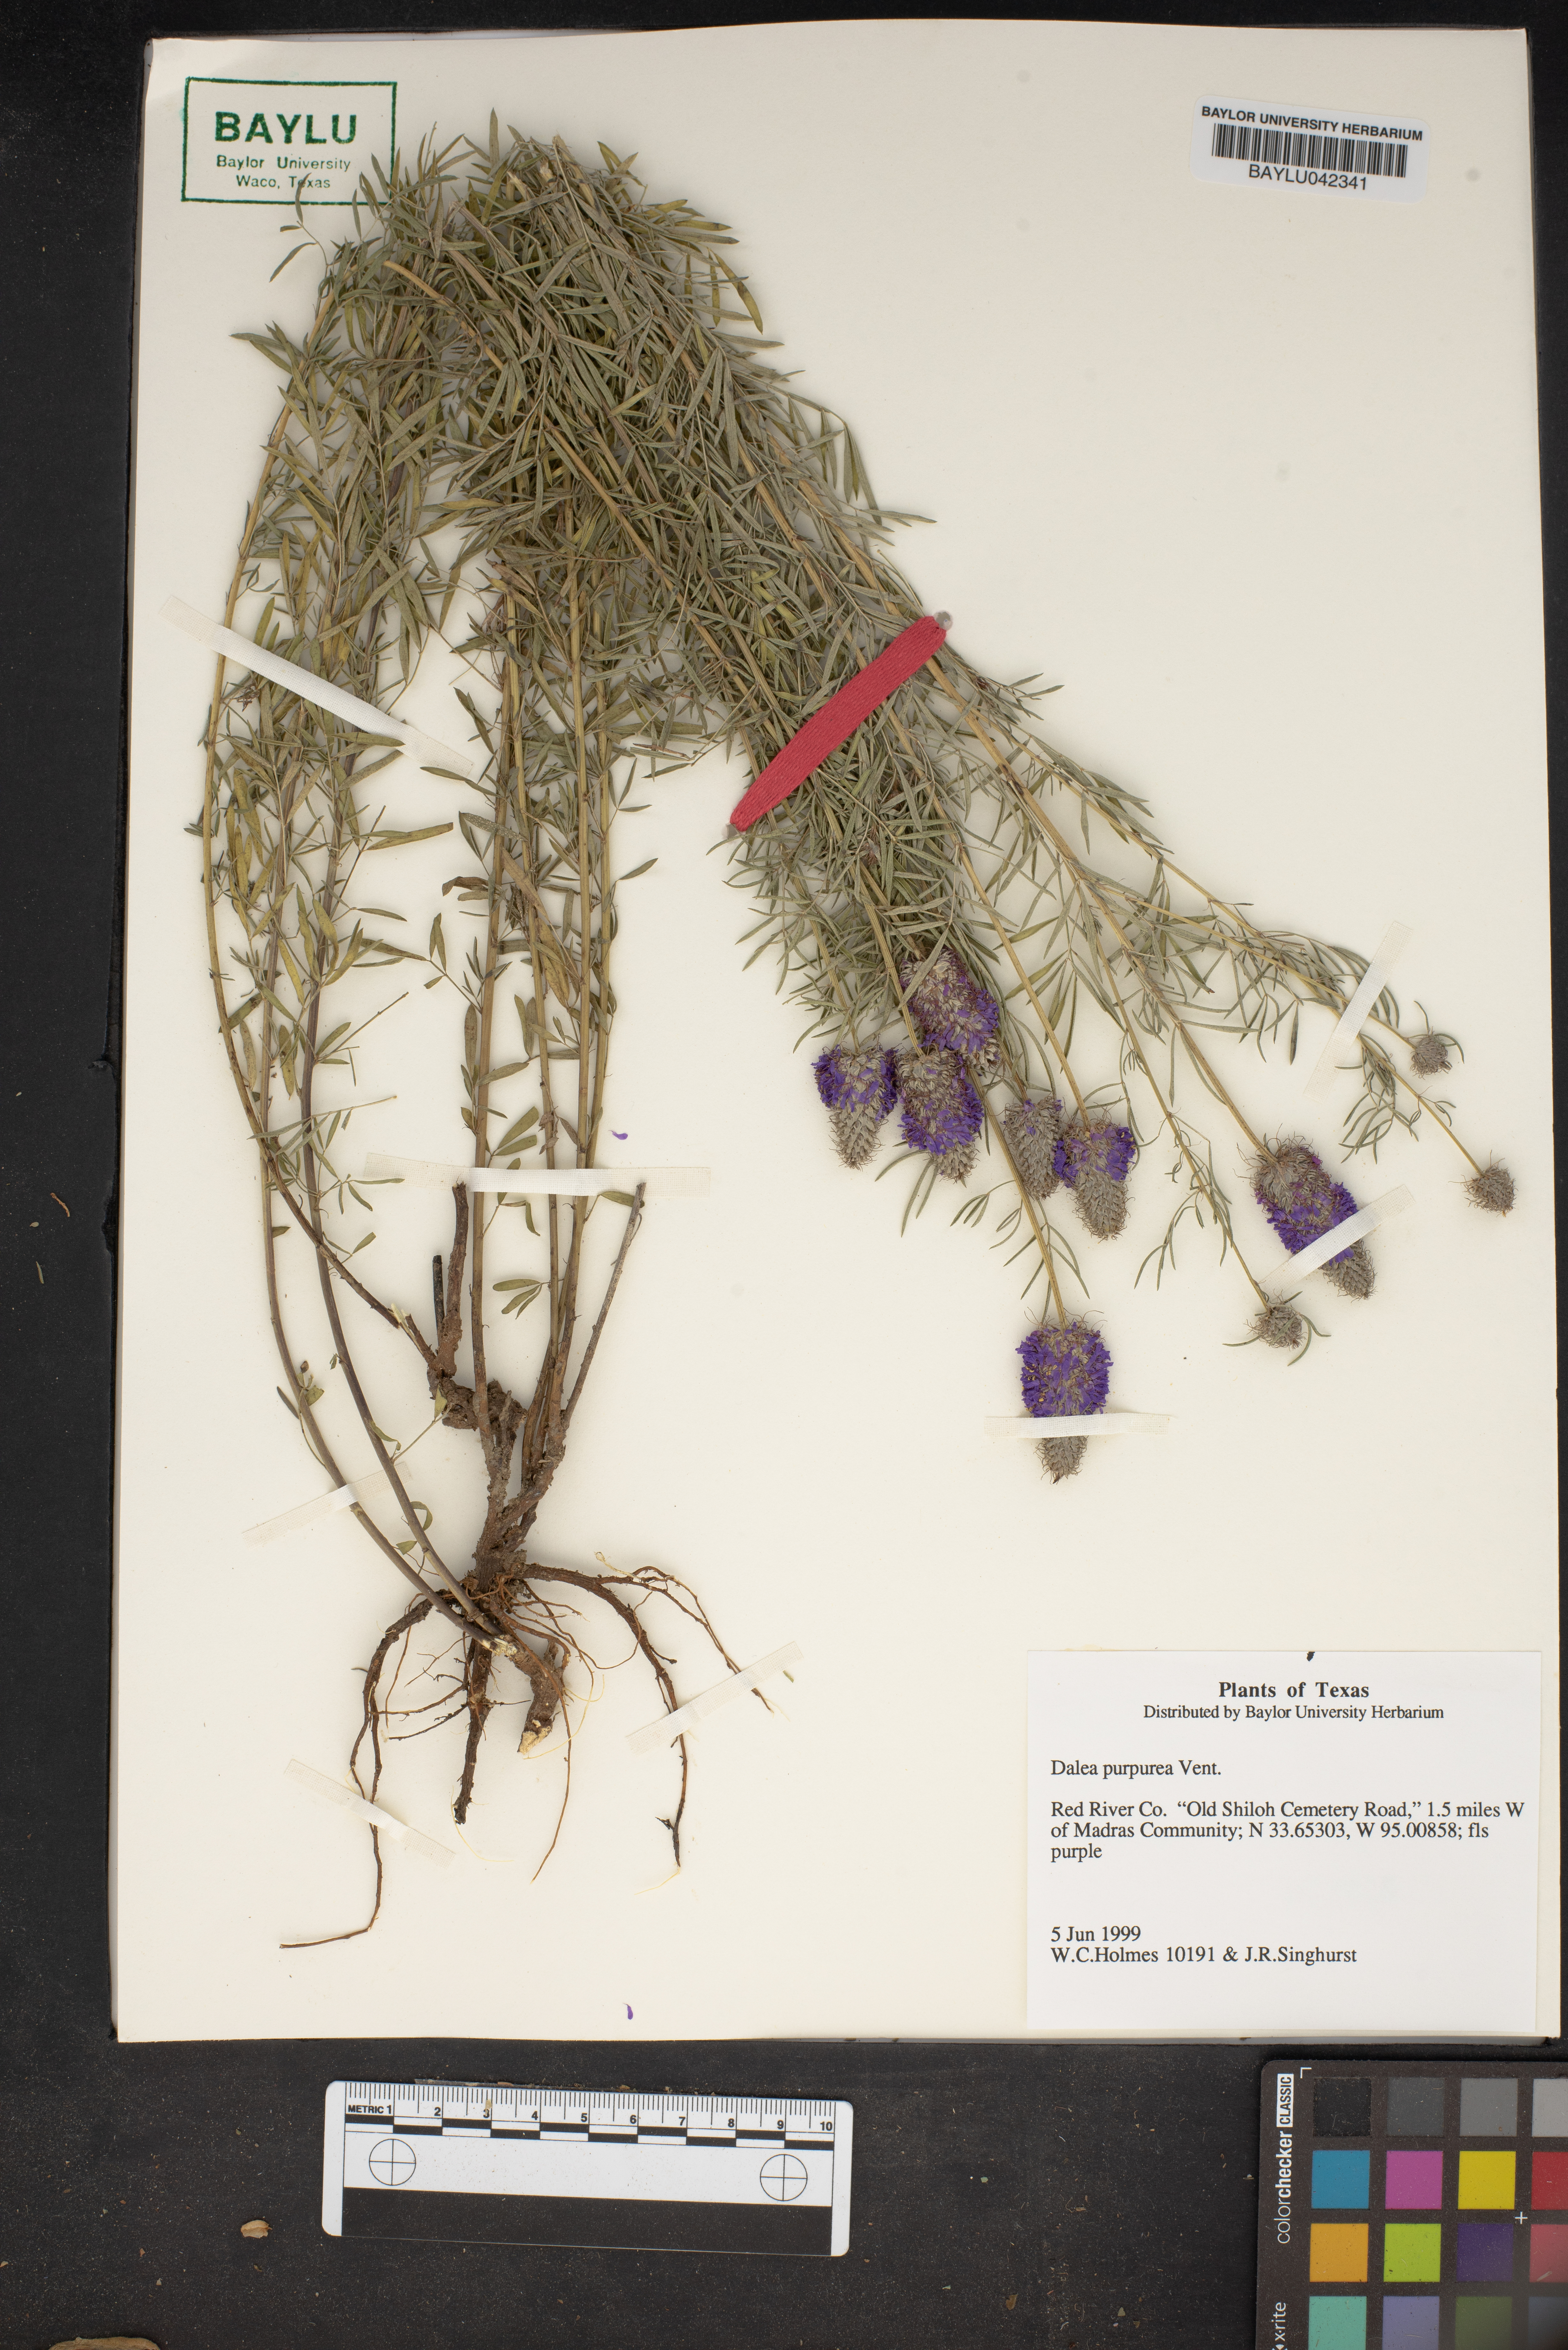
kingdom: Plantae
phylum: Tracheophyta
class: Magnoliopsida
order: Fabales
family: Fabaceae
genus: Dalea
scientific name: Dalea purpurea
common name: Purple prairie-clover
